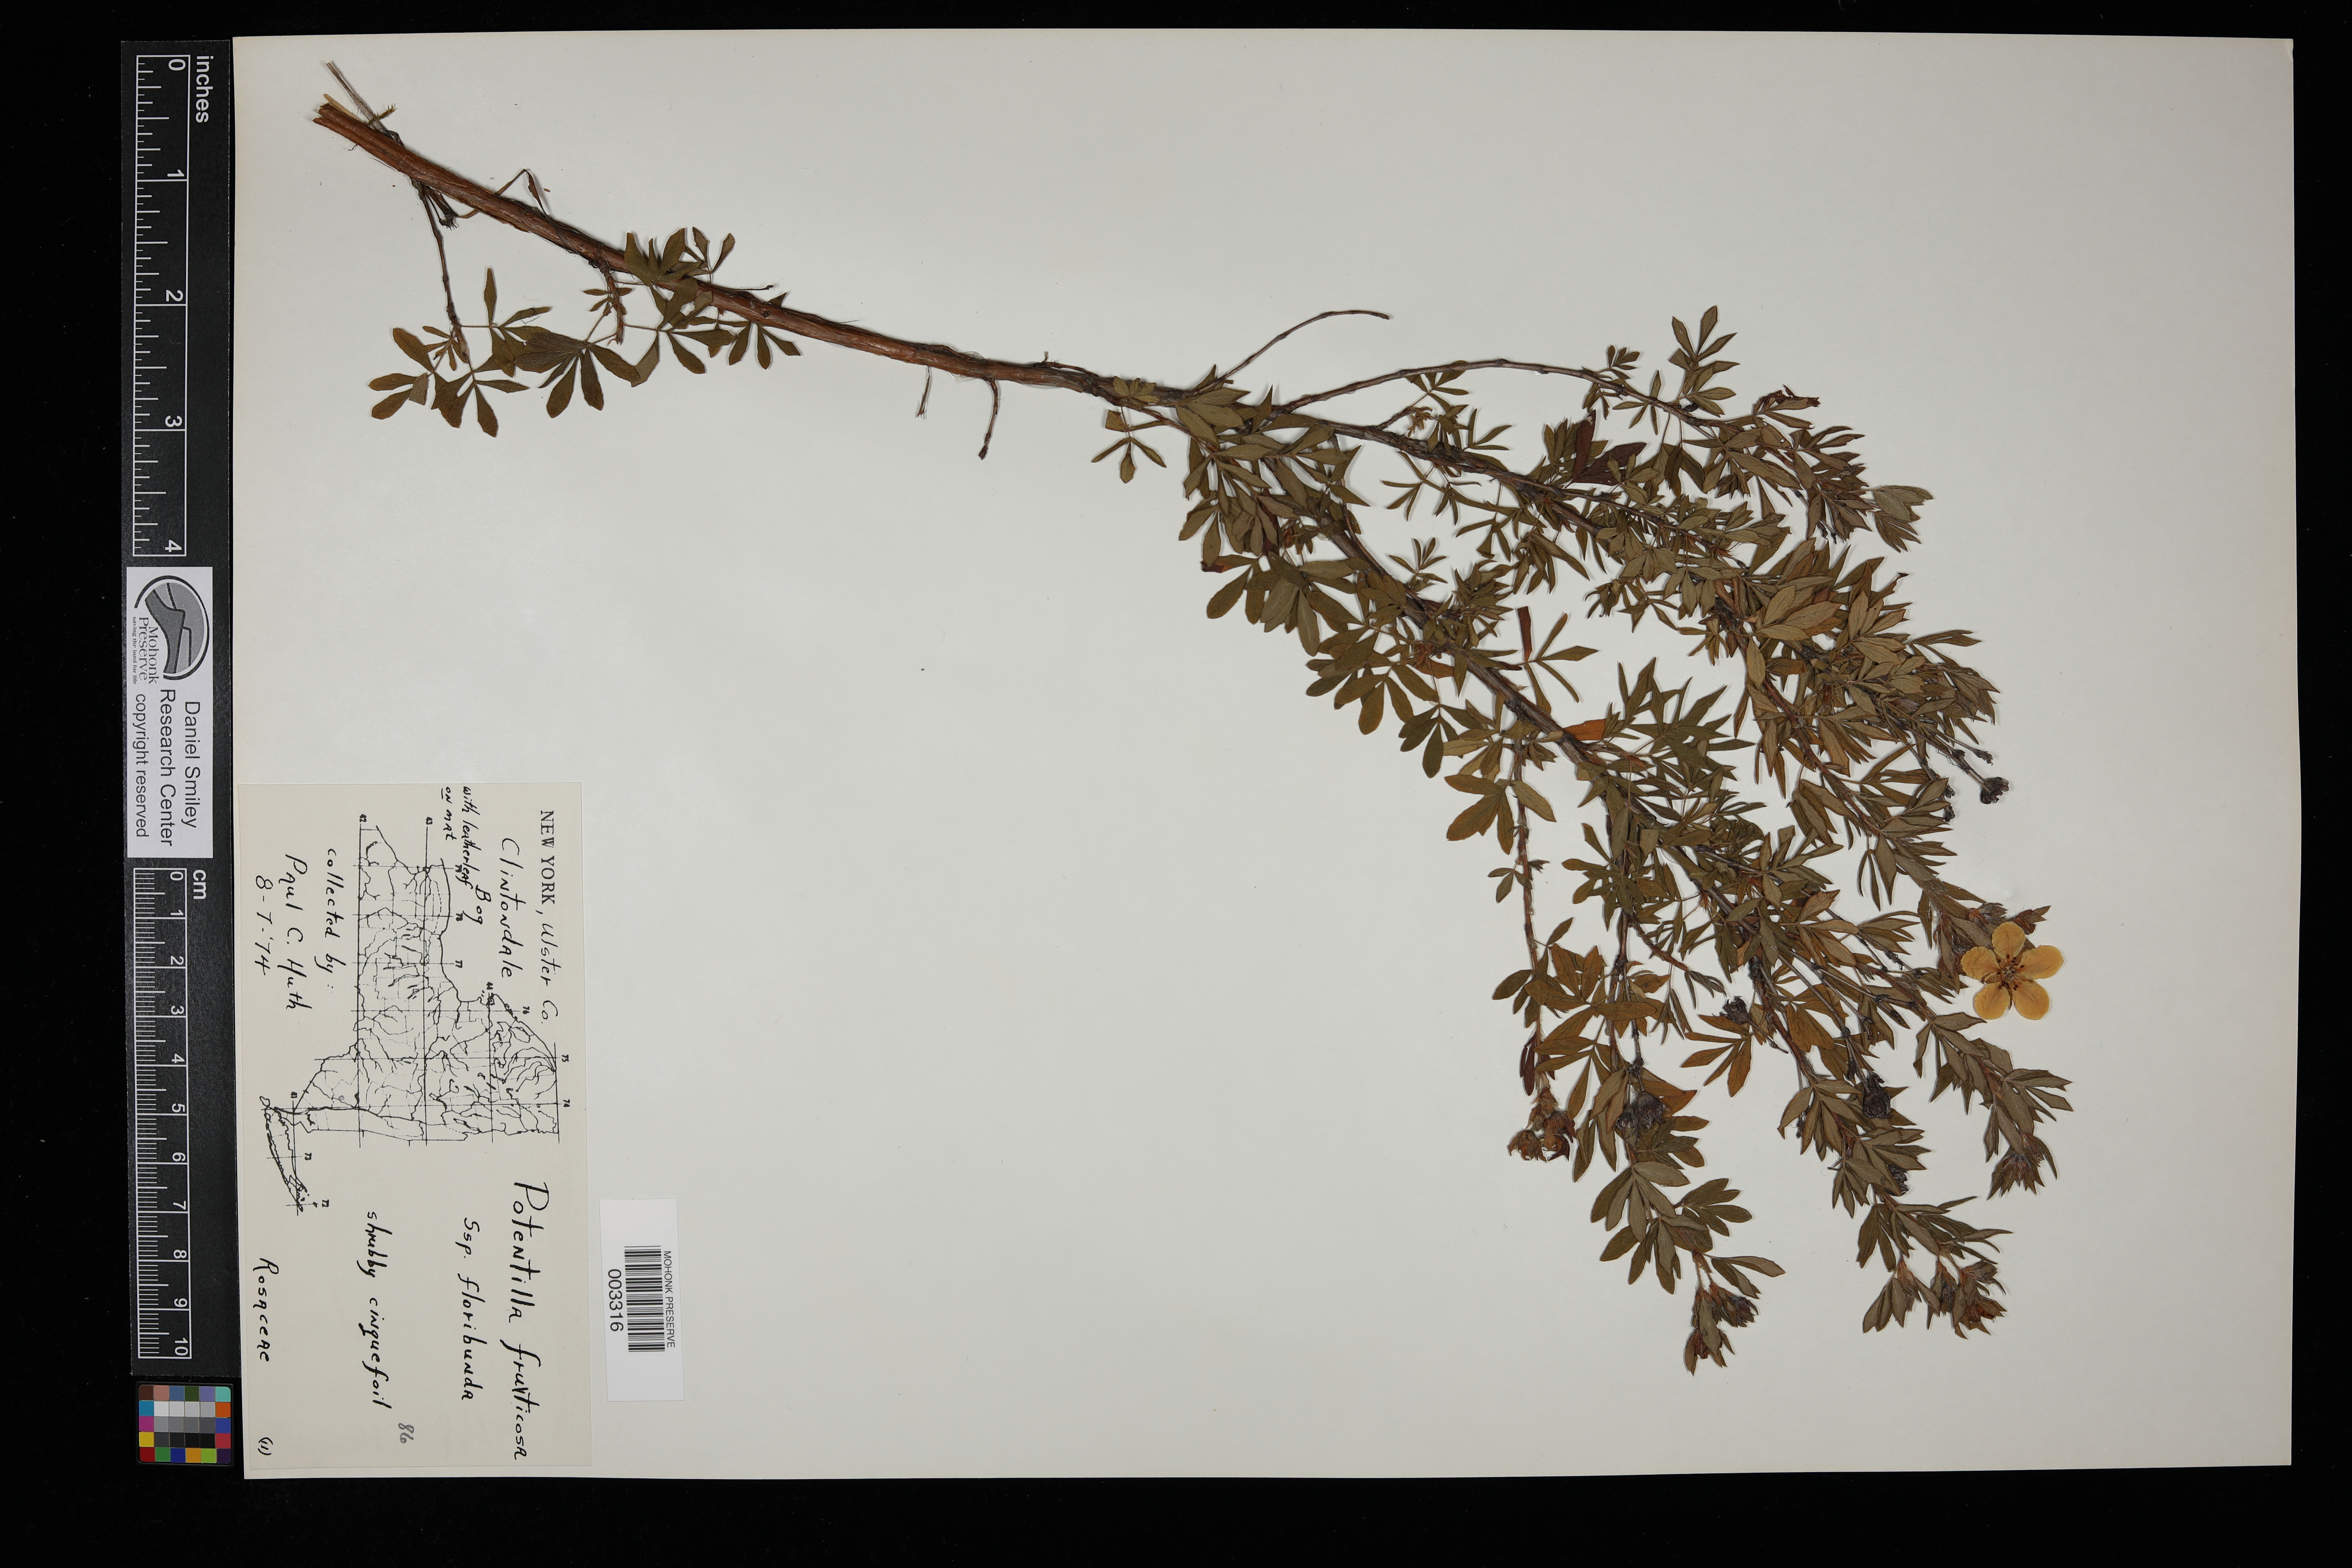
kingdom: Plantae
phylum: Tracheophyta
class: Magnoliopsida
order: Rosales
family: Rosaceae
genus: Potentilla
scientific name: Potentilla
